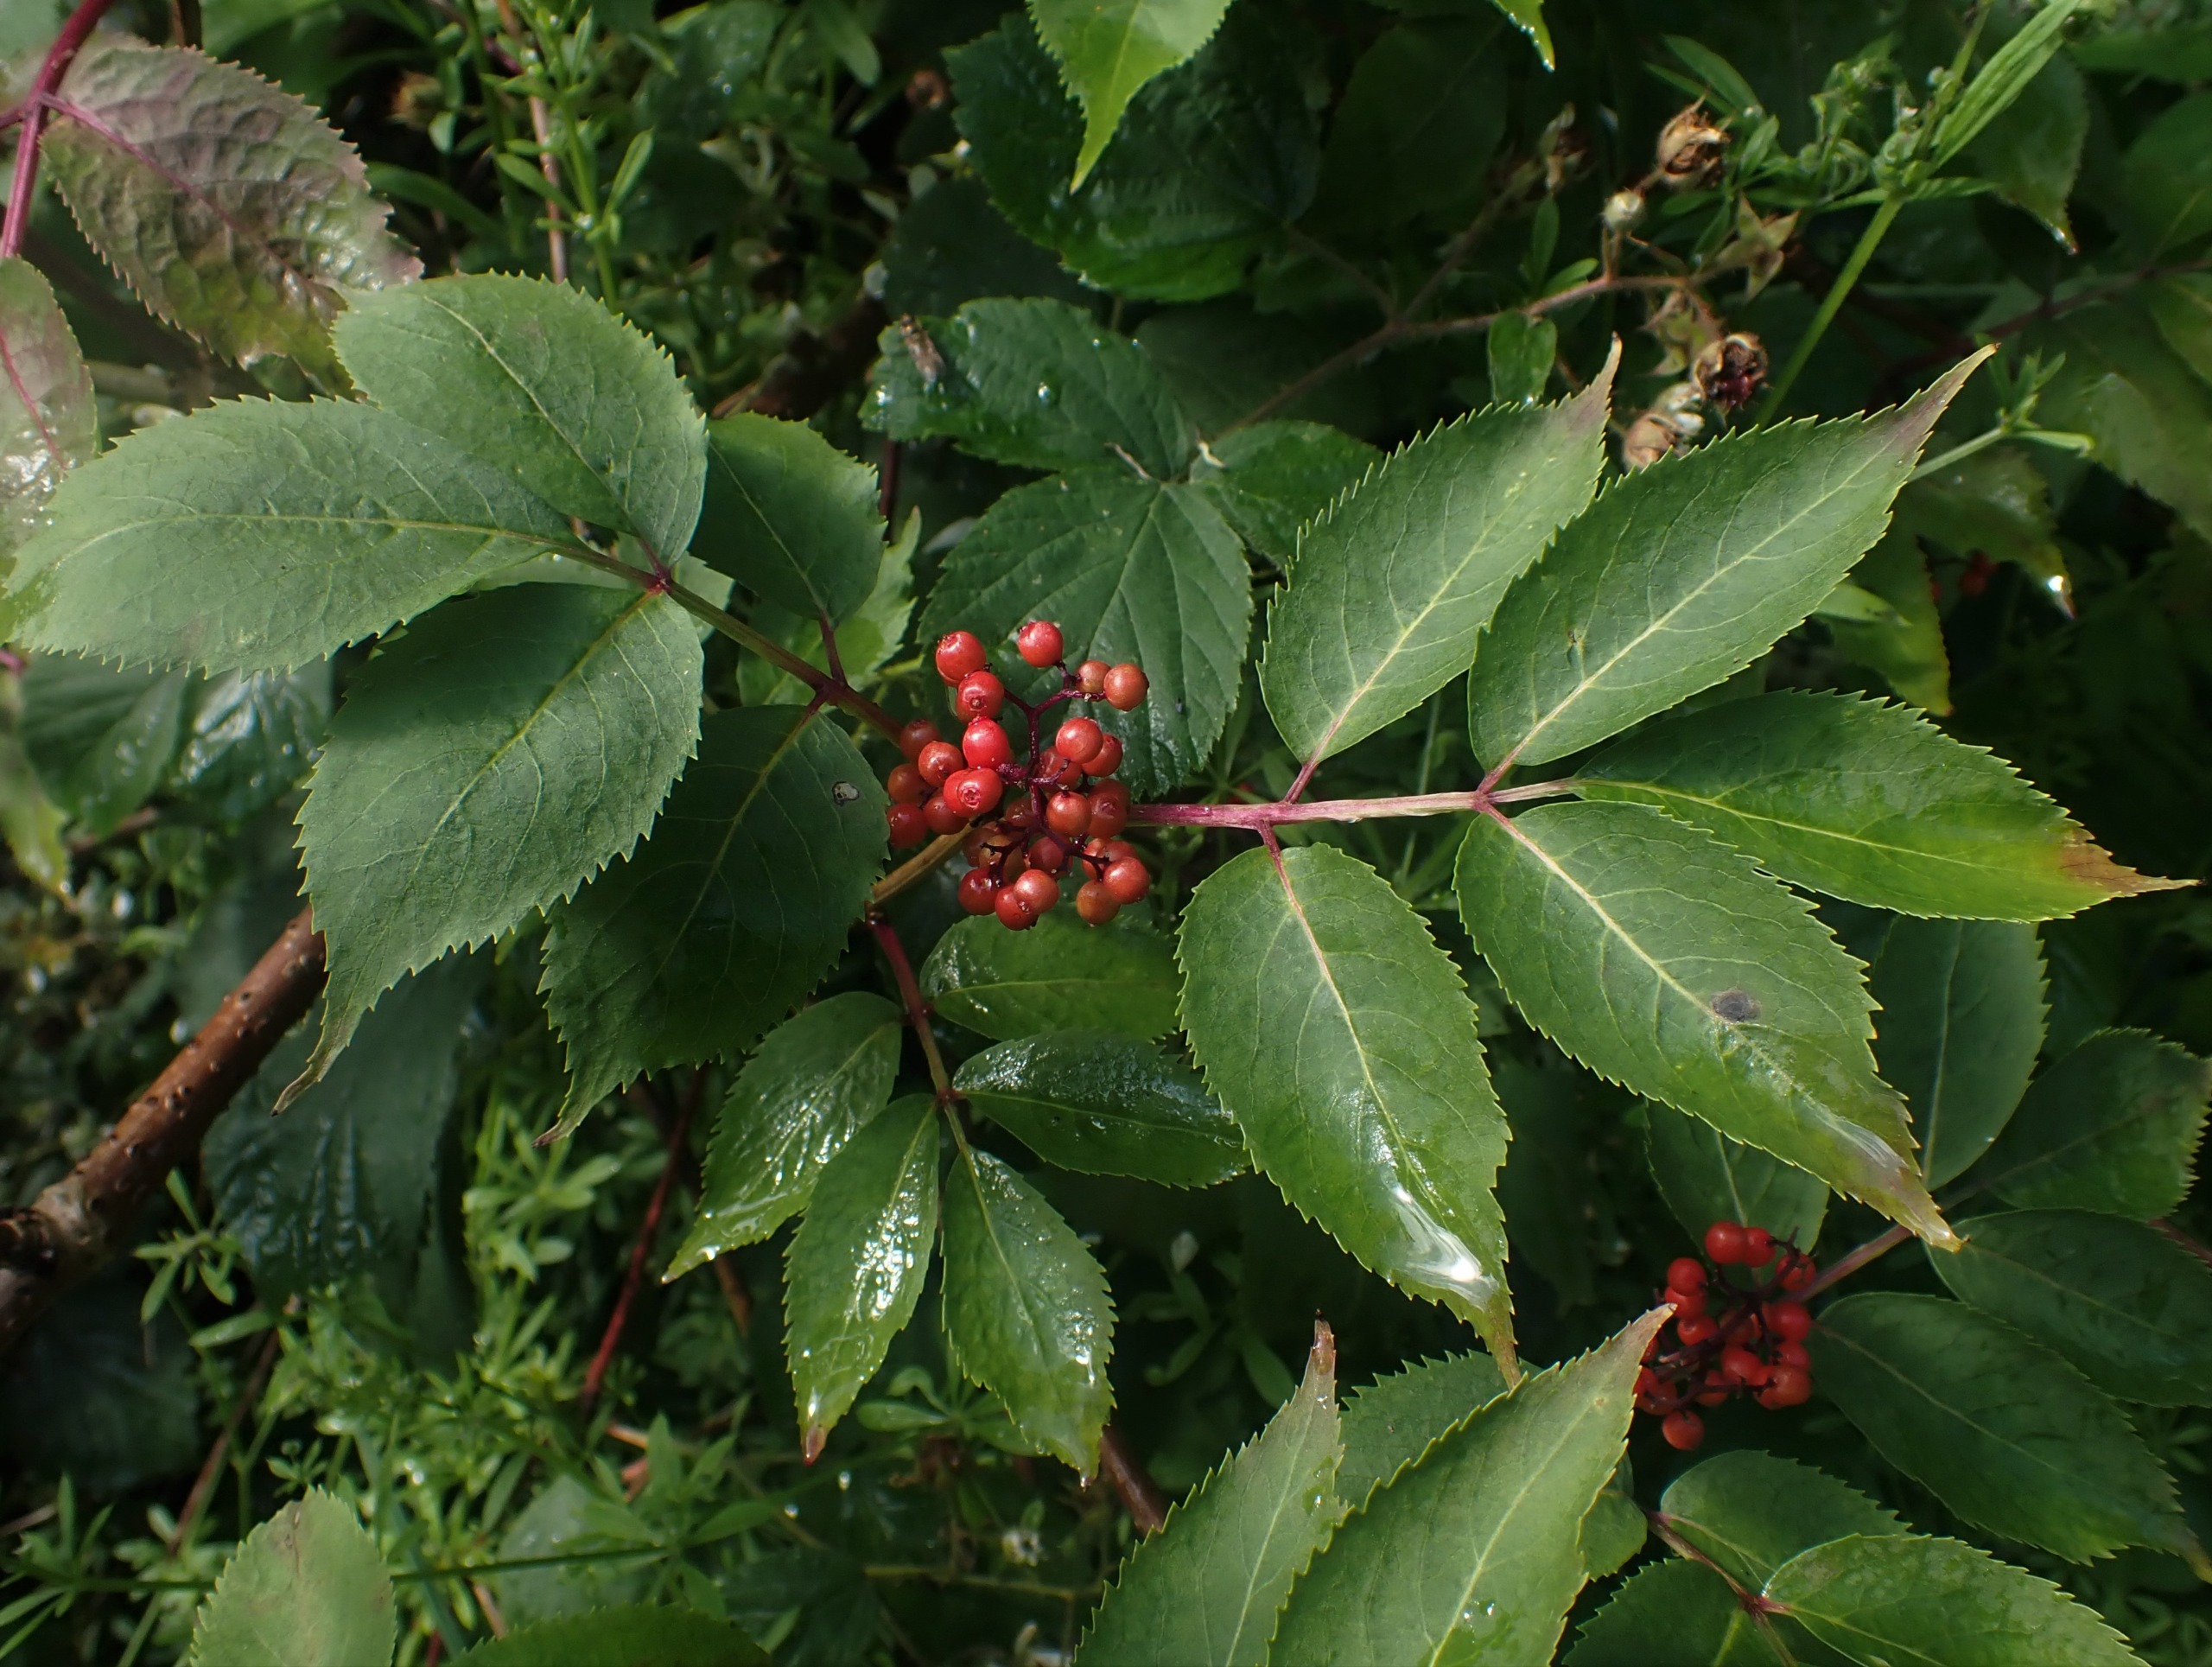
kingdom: Plantae
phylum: Tracheophyta
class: Magnoliopsida
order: Dipsacales
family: Viburnaceae
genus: Sambucus
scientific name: Sambucus racemosa
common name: Drue-hyld
